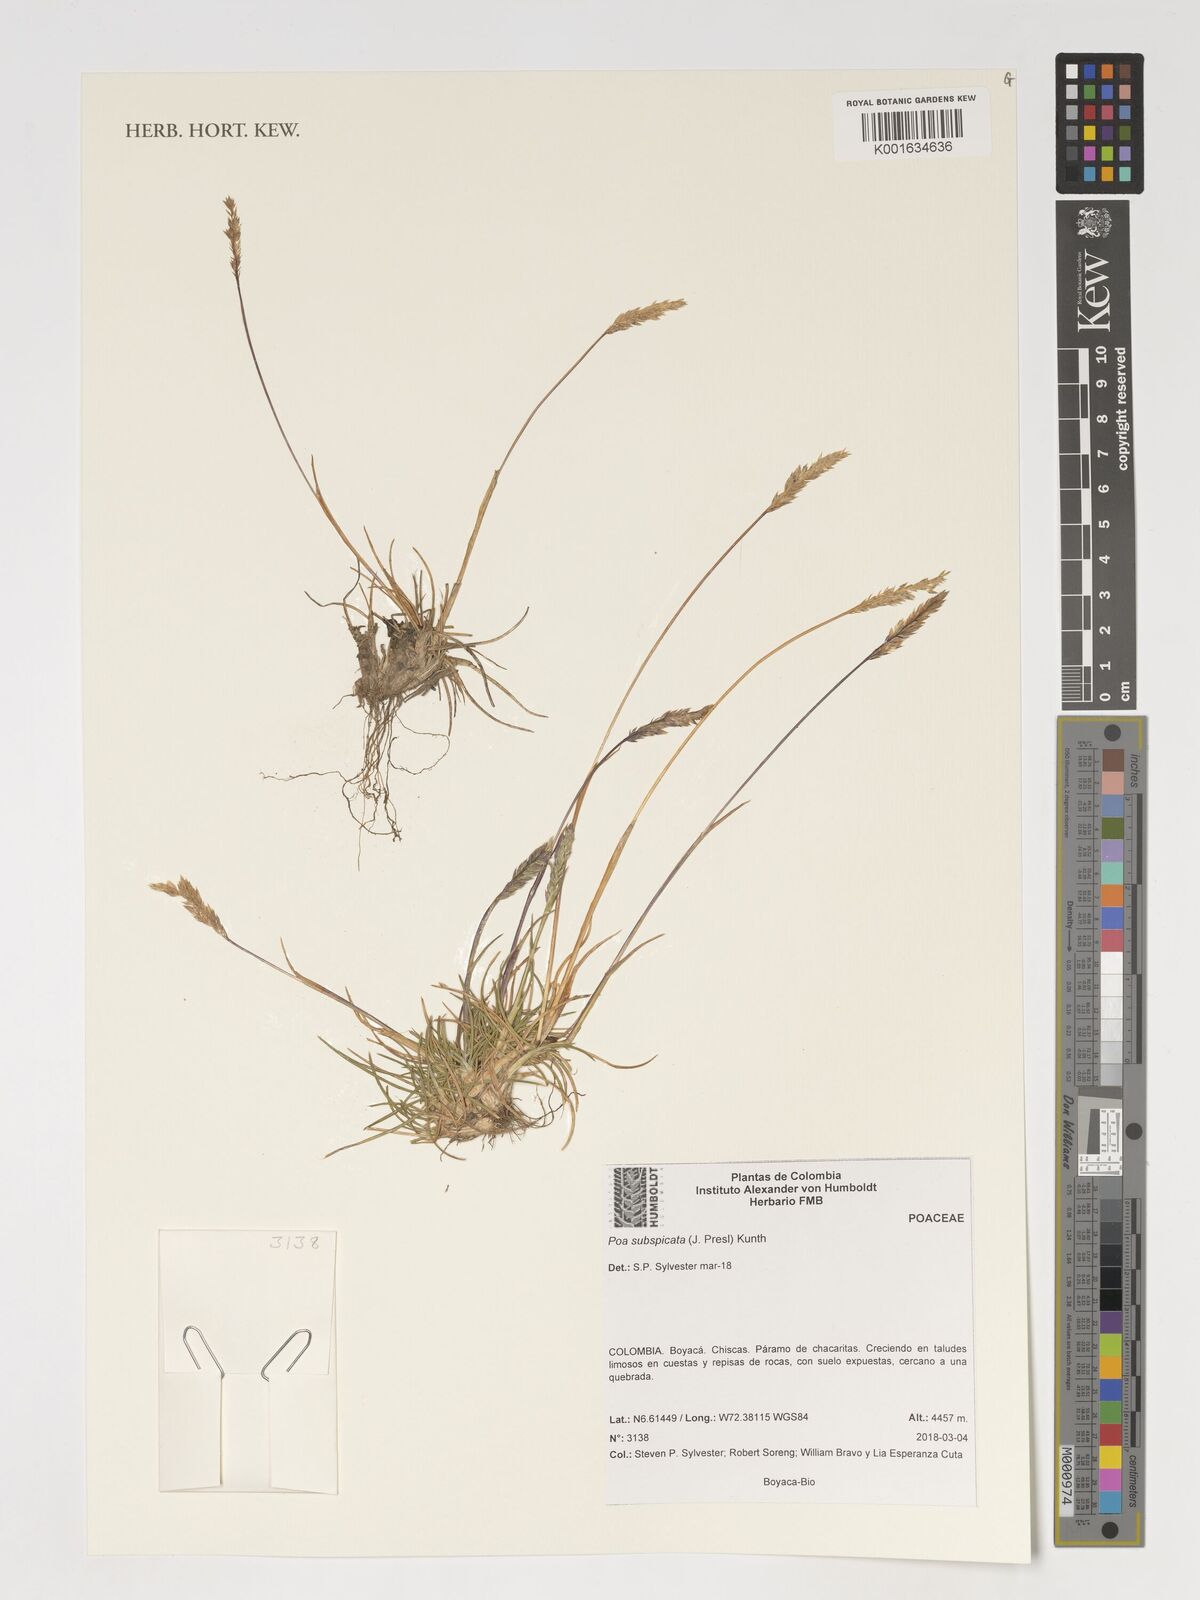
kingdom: Plantae
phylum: Tracheophyta
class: Liliopsida
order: Poales
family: Poaceae
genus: Poa
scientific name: Poa subspicata
